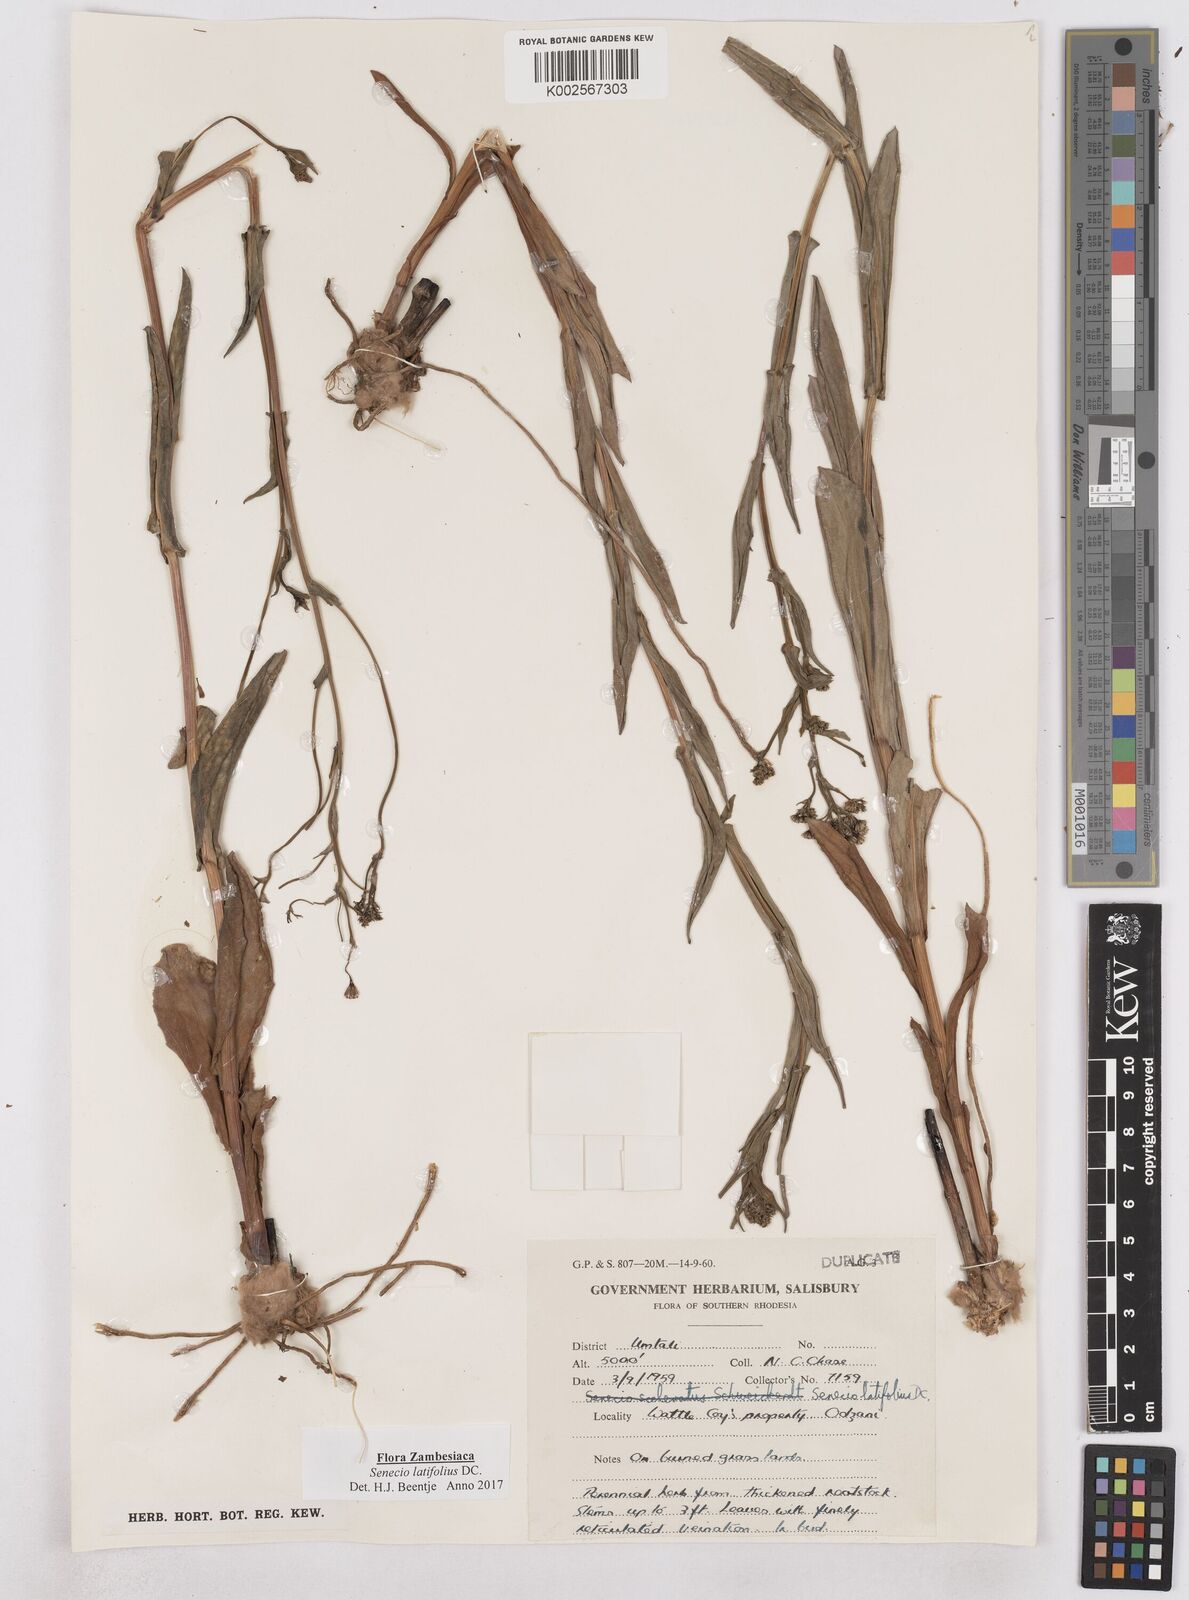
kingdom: Plantae
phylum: Tracheophyta
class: Magnoliopsida
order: Asterales
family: Asteraceae
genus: Senecio
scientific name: Senecio latifolius
